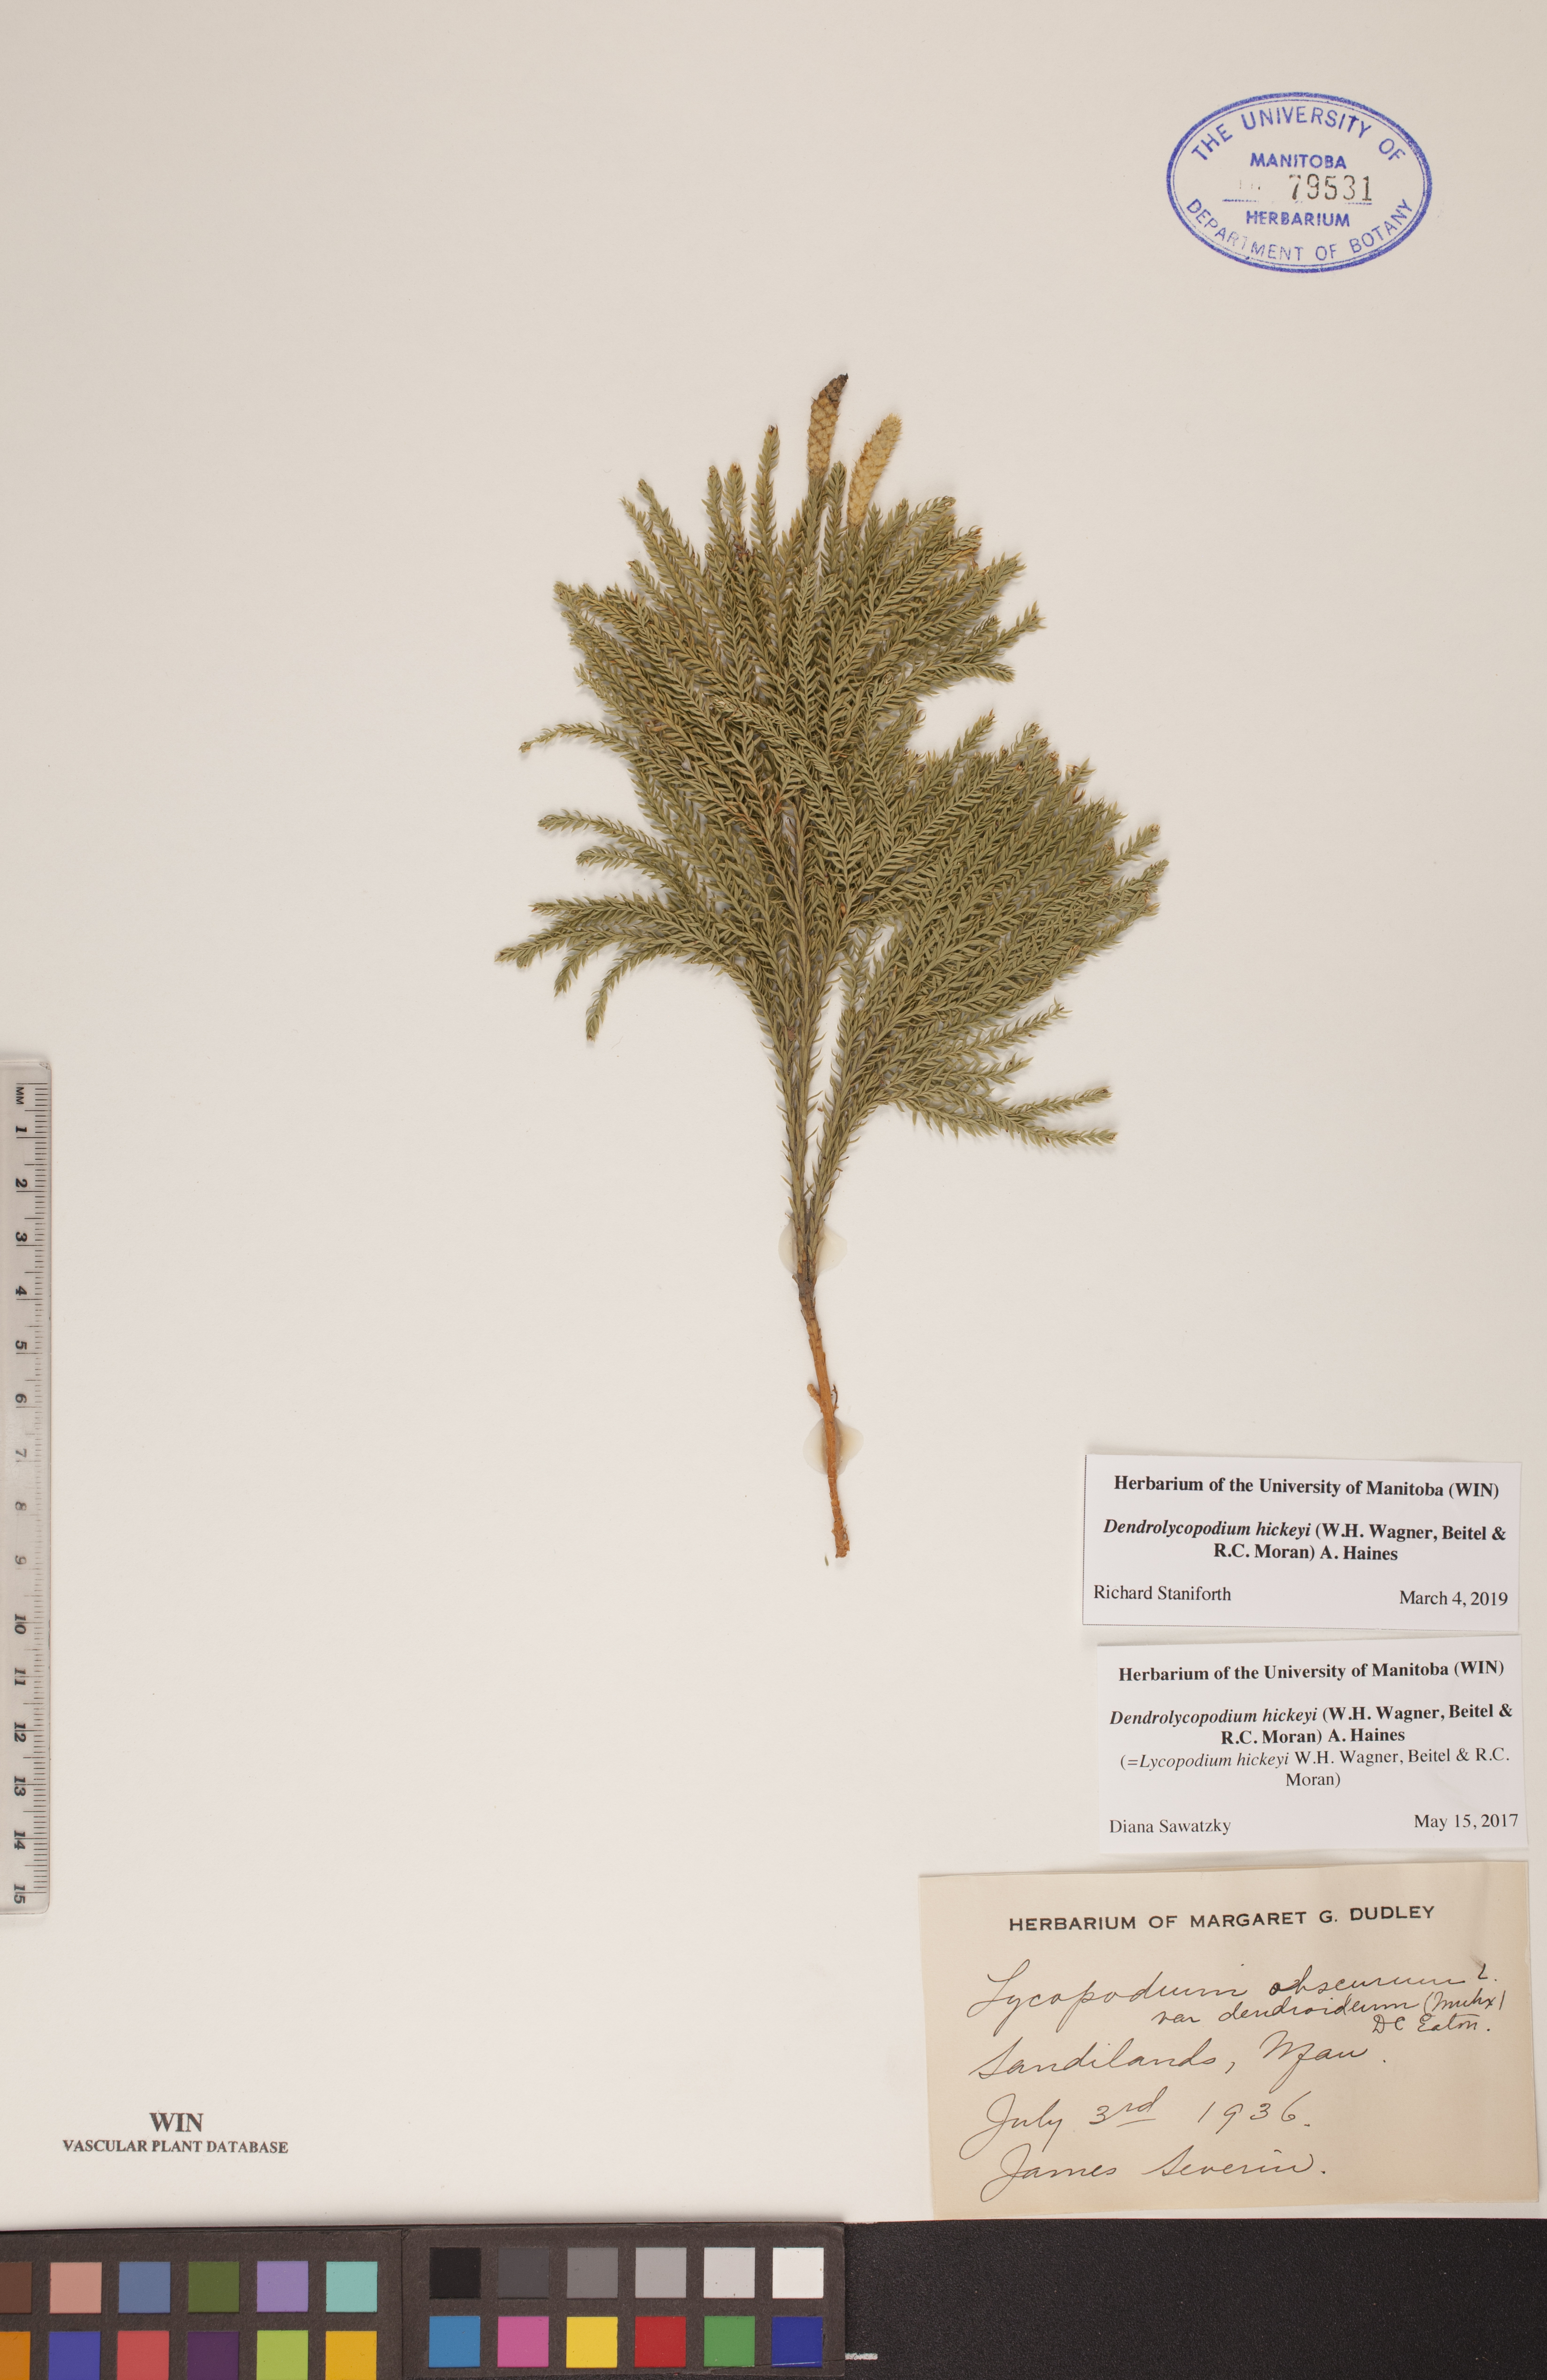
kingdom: Plantae
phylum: Tracheophyta
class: Lycopodiopsida
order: Lycopodiales
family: Lycopodiaceae
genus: Dendrolycopodium
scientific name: Dendrolycopodium hickeyi
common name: Hickey's clubmoss
